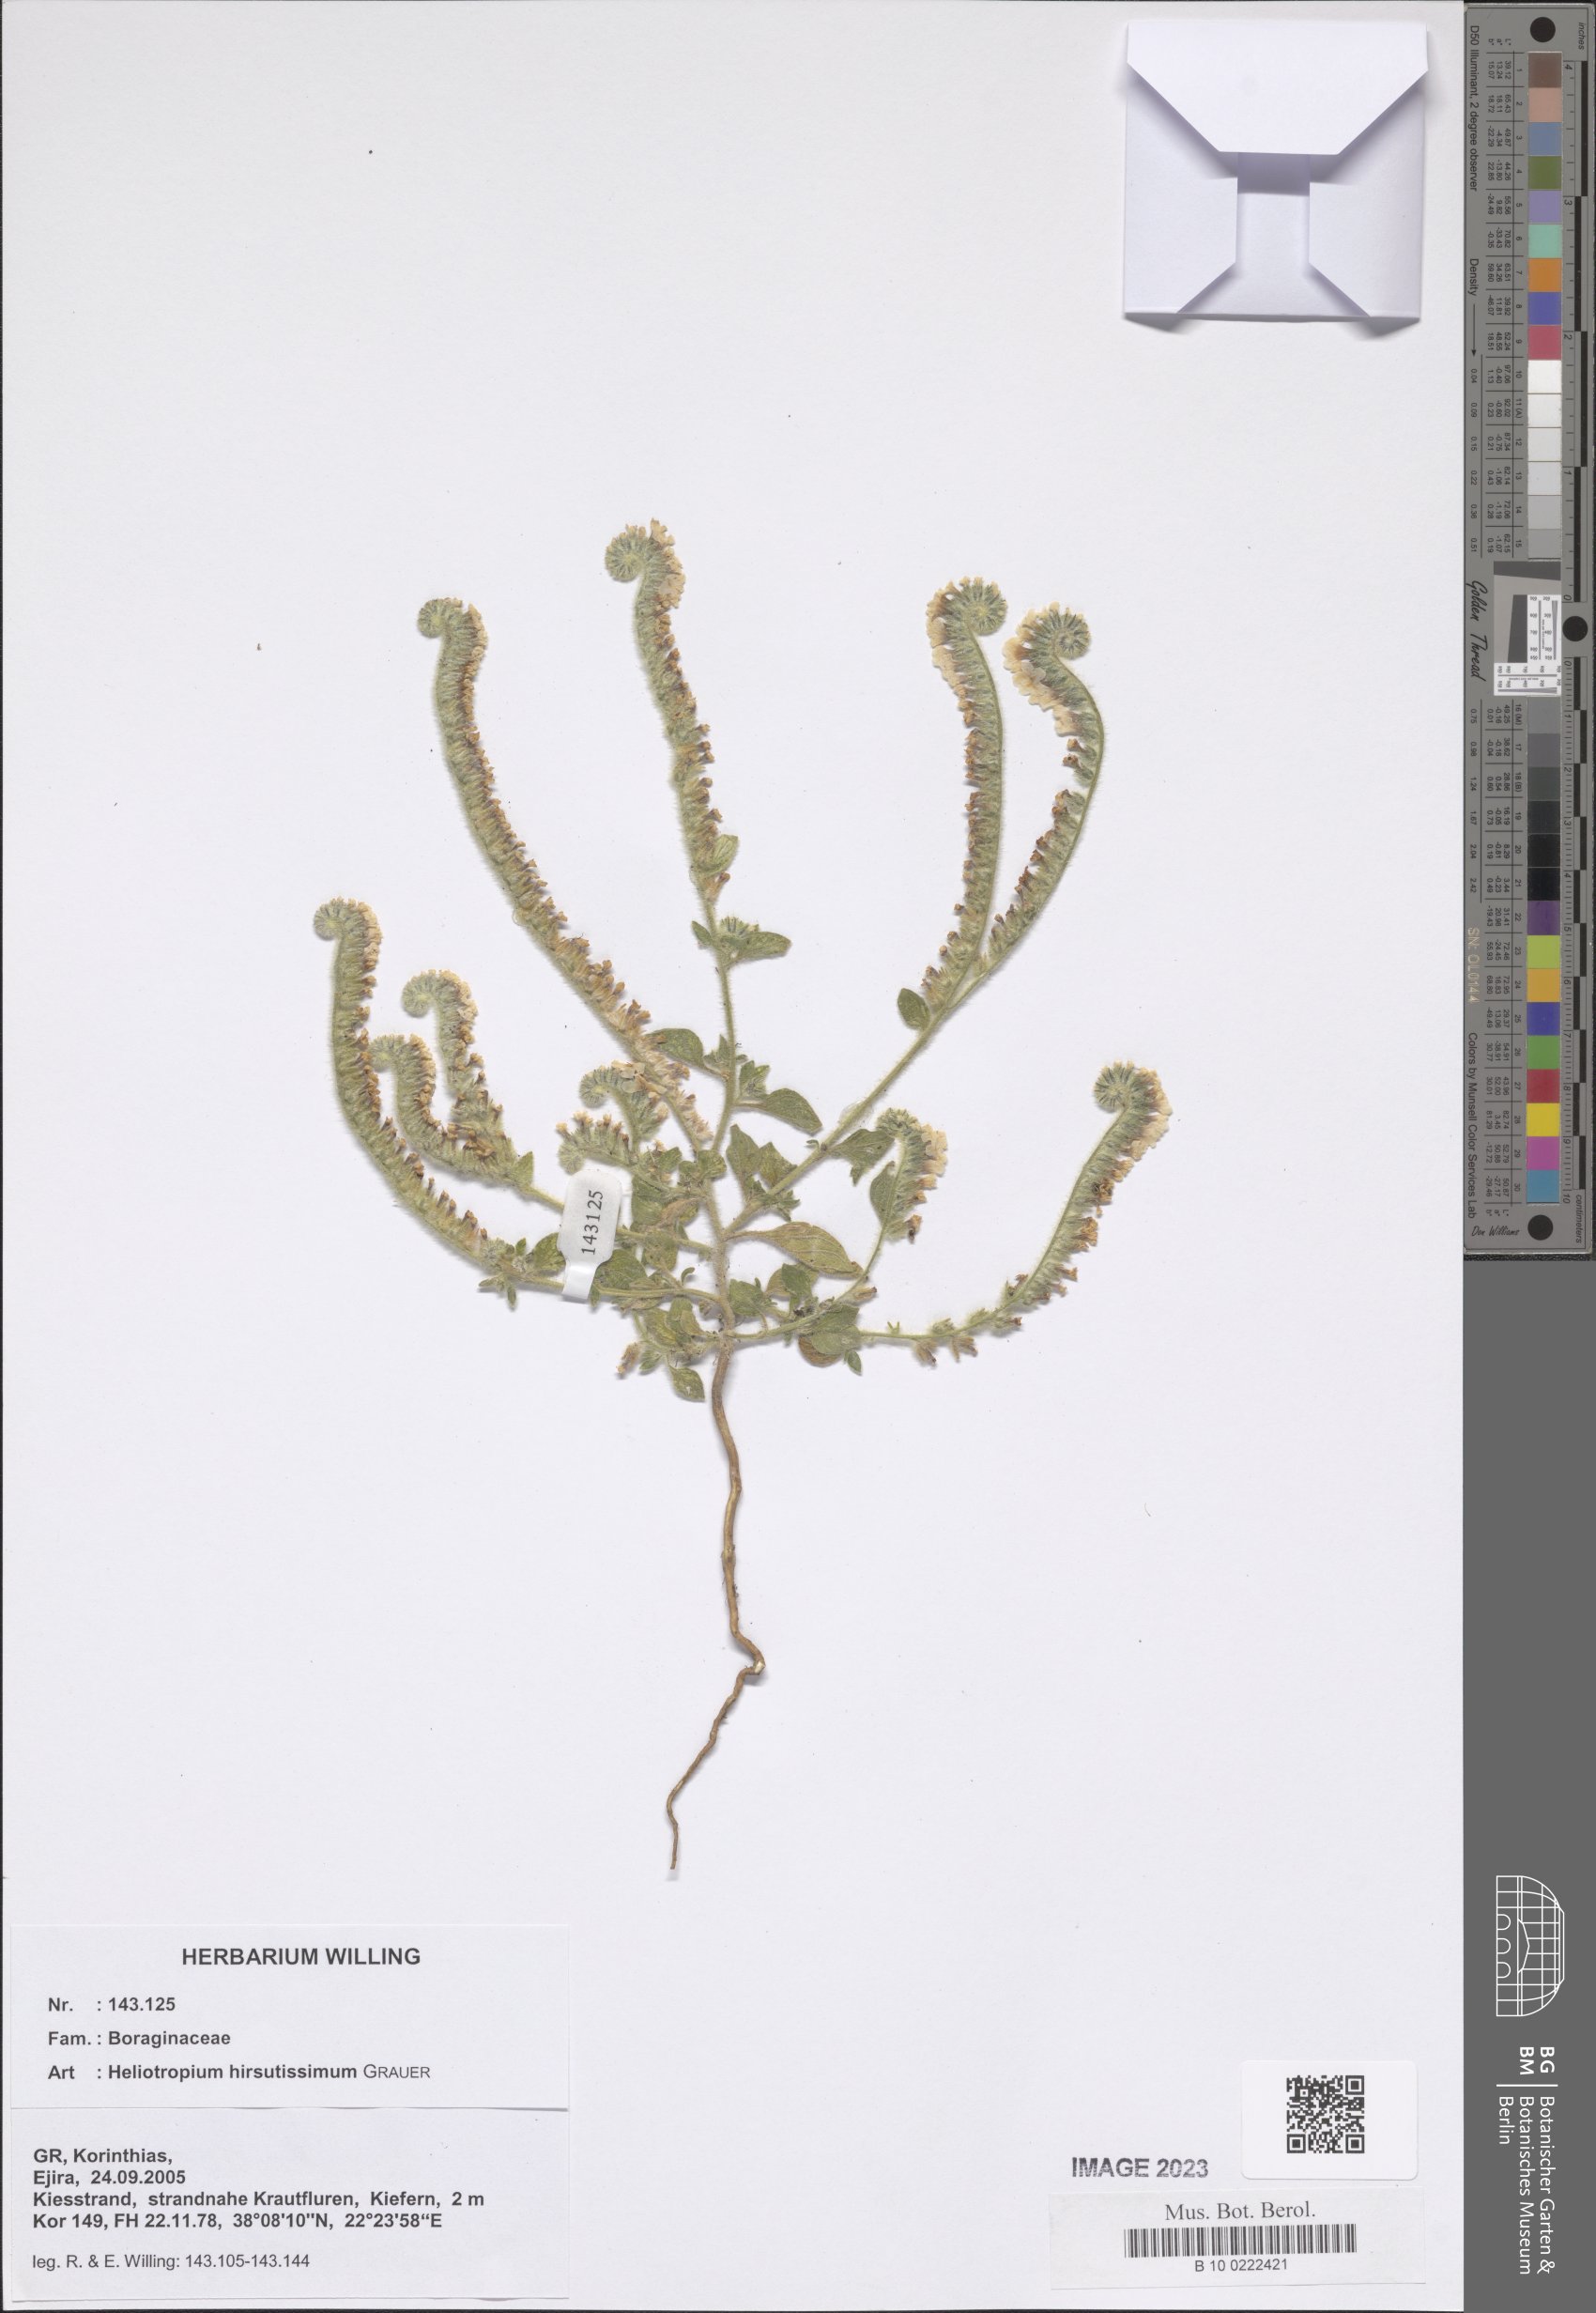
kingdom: Plantae
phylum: Tracheophyta
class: Magnoliopsida
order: Boraginales
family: Heliotropiaceae
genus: Heliotropium
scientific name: Heliotropium hirsutissimum
